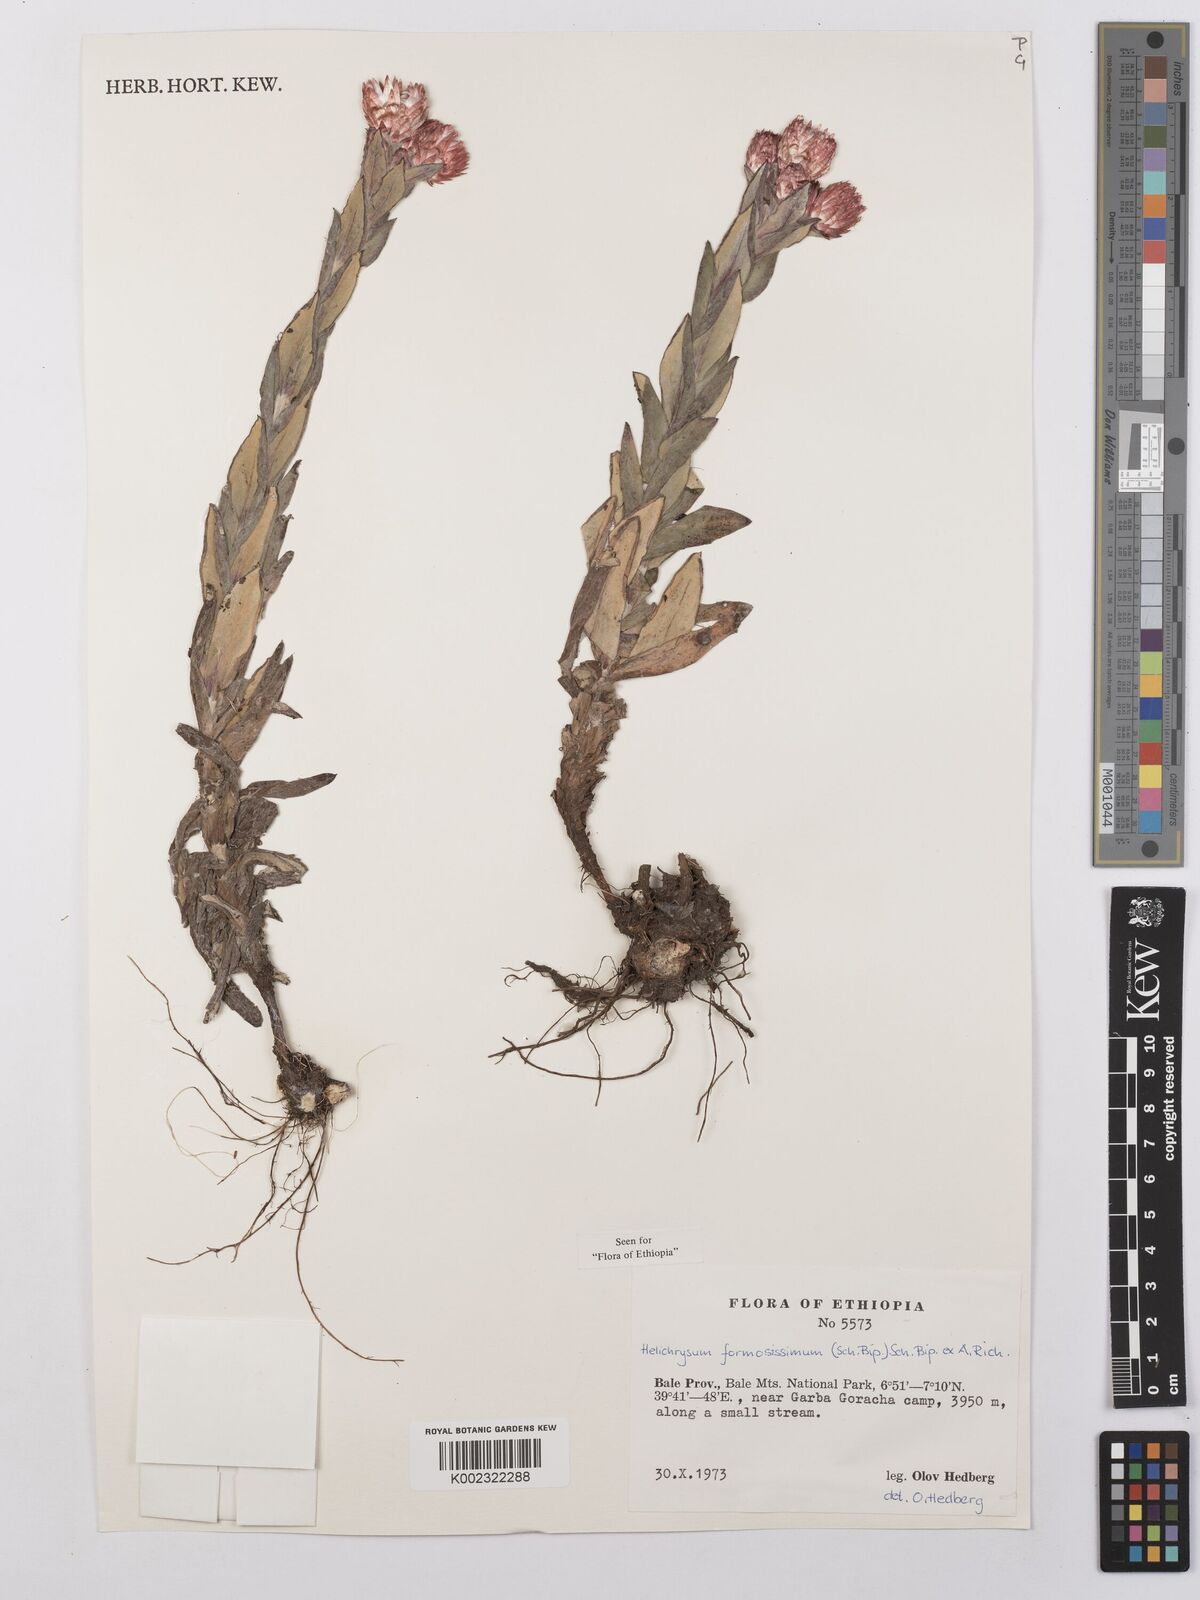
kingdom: Plantae
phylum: Tracheophyta
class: Magnoliopsida
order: Asterales
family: Asteraceae
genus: Helichrysum
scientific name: Helichrysum formosissimum
